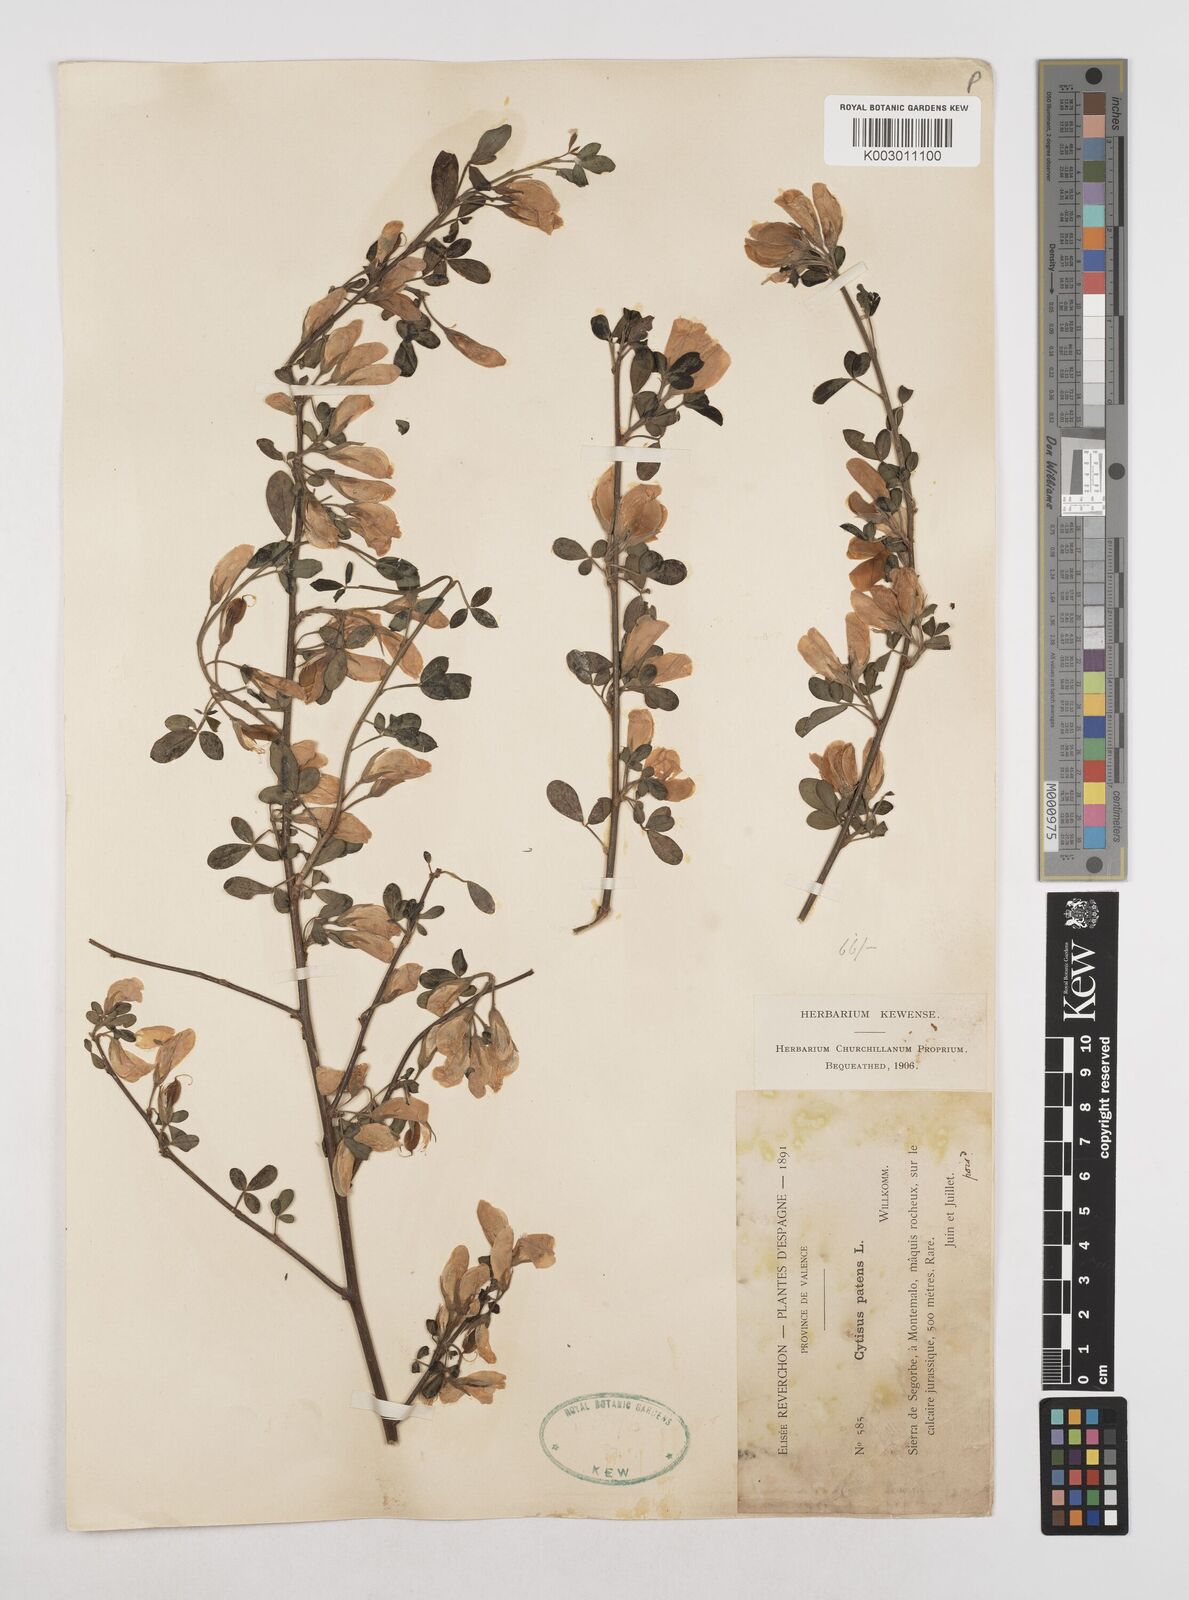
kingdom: Plantae
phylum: Tracheophyta
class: Magnoliopsida
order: Fabales
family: Fabaceae
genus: Cytisus
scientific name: Cytisus striatus
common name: Hairy-fruited broom
